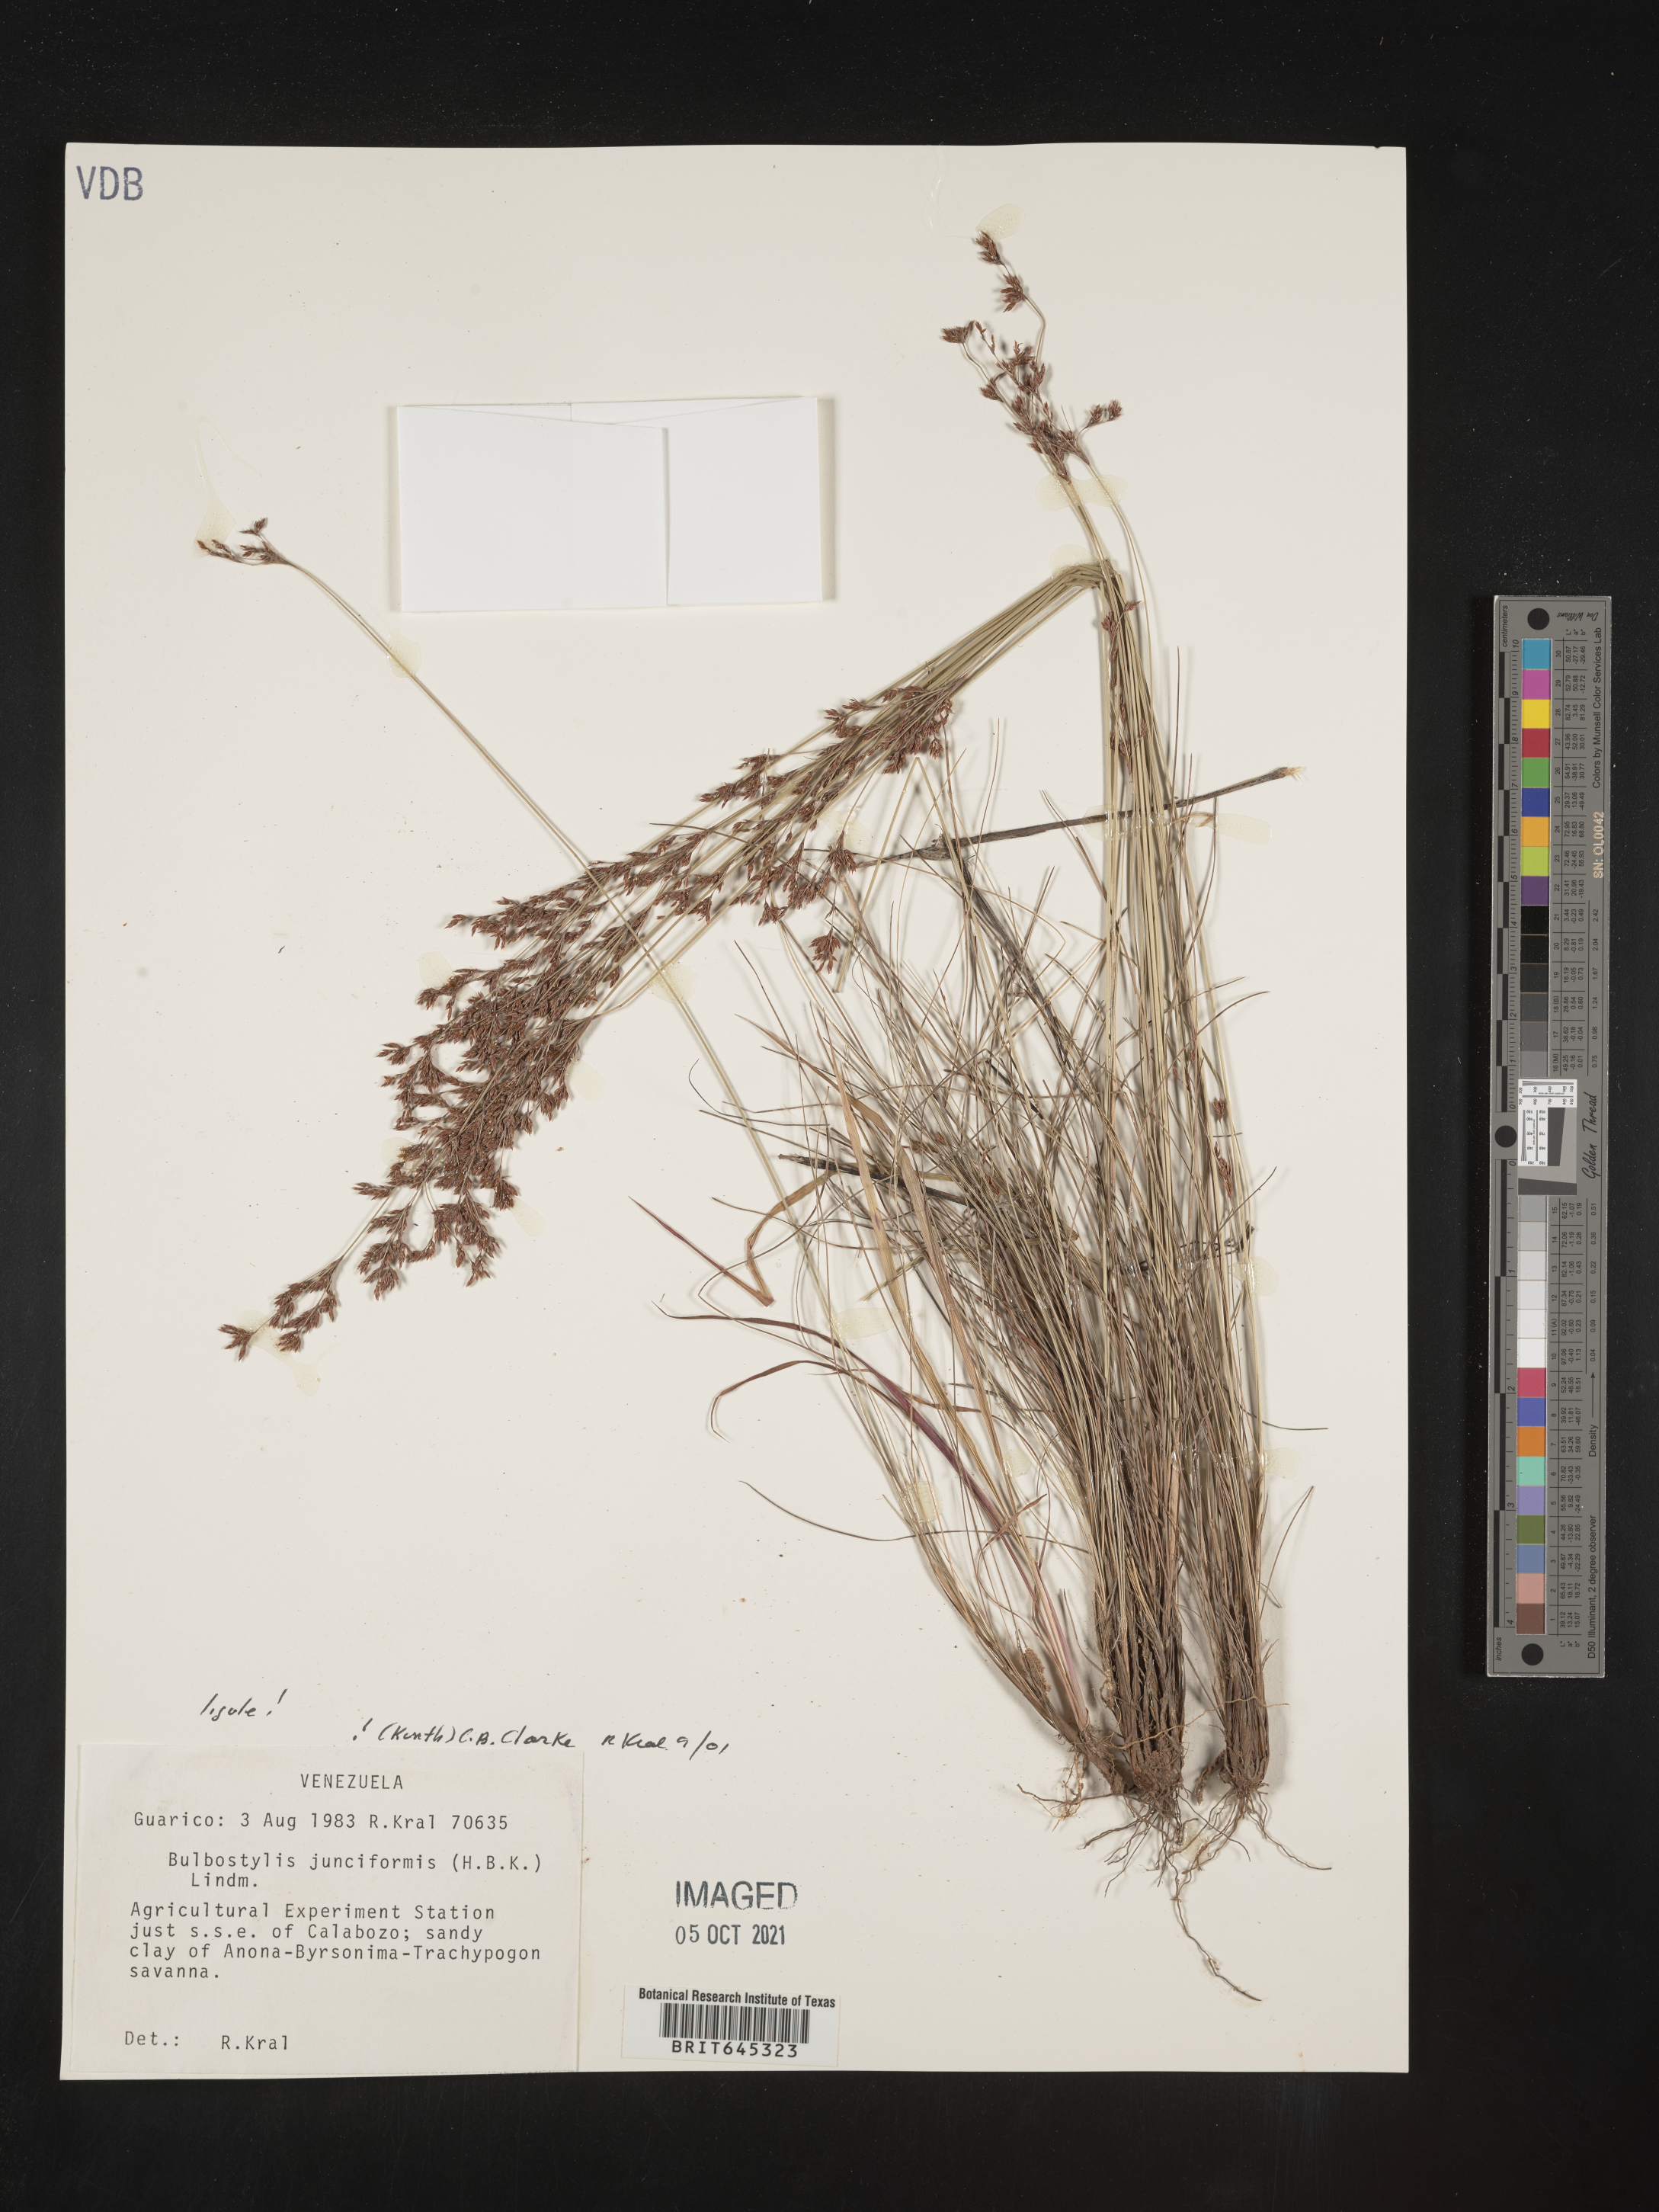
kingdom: Plantae
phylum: Tracheophyta
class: Liliopsida
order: Poales
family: Cyperaceae
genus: Bulbostylis
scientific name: Bulbostylis junciformis
